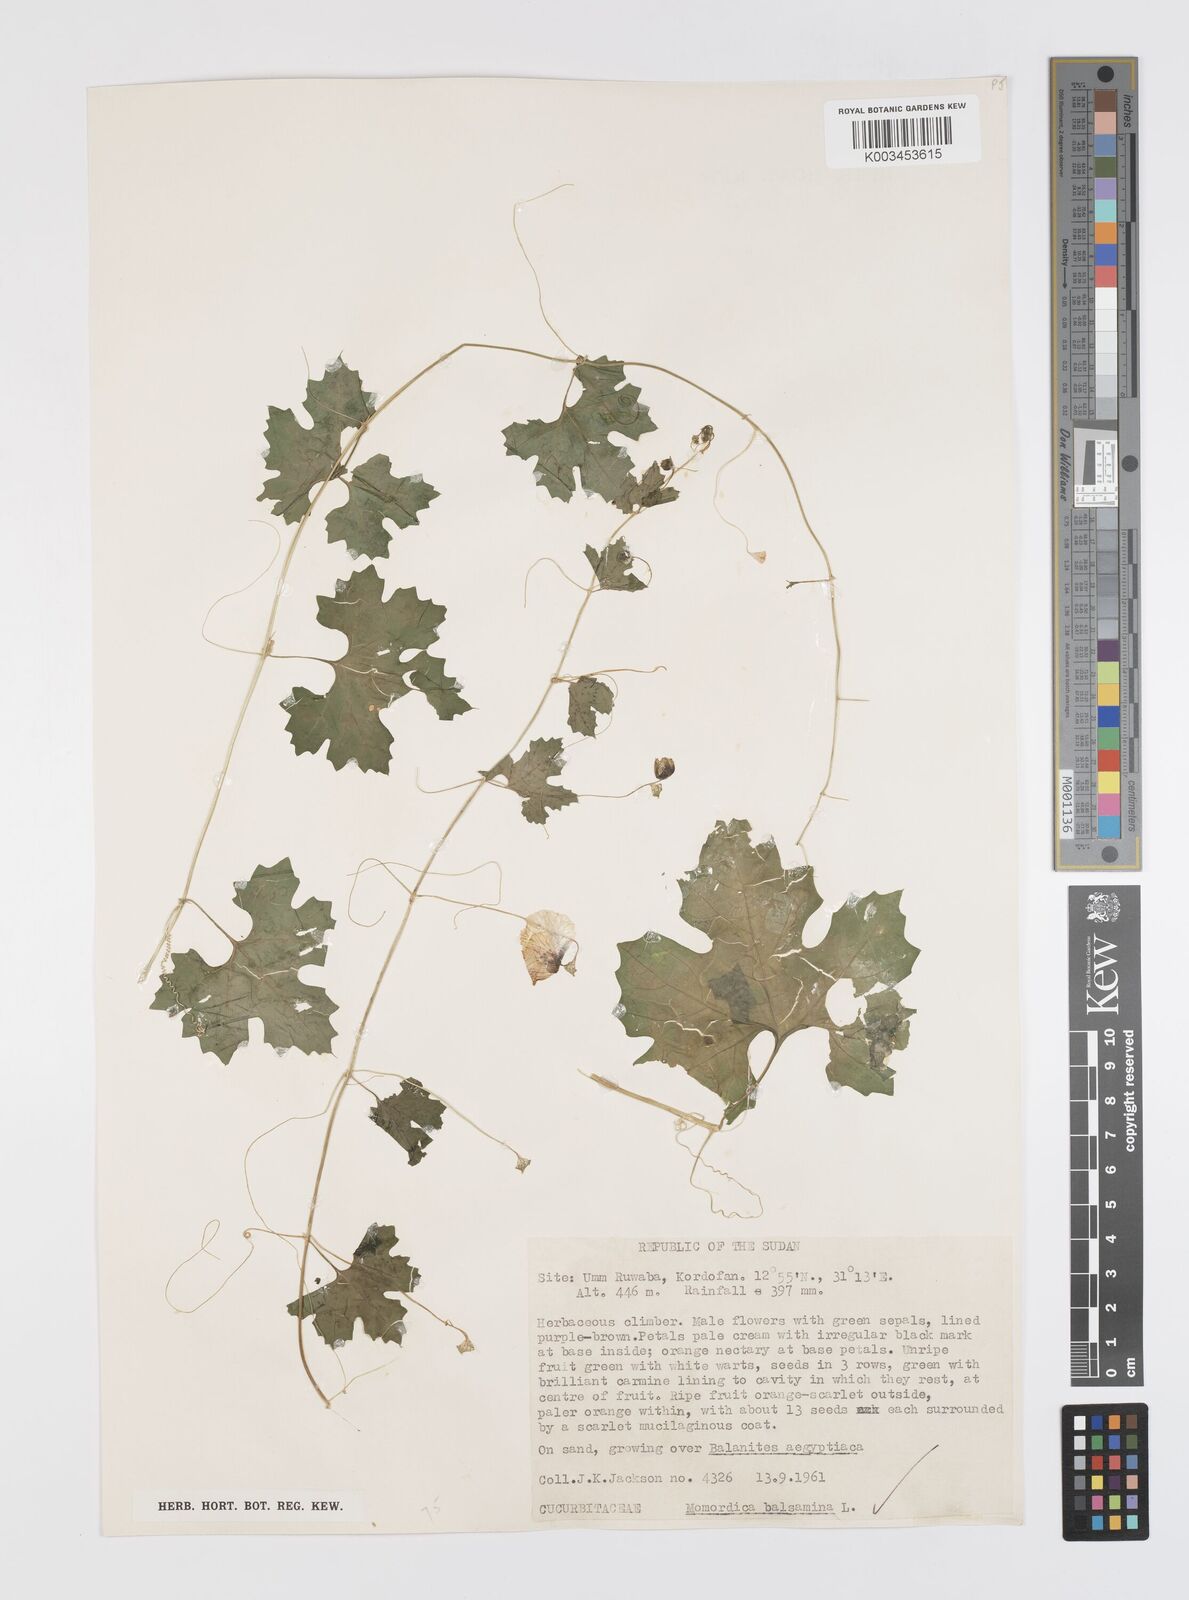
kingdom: Plantae
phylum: Tracheophyta
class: Magnoliopsida
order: Cucurbitales
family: Cucurbitaceae
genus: Momordica
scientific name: Momordica balsamina
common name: Southern balsampear
